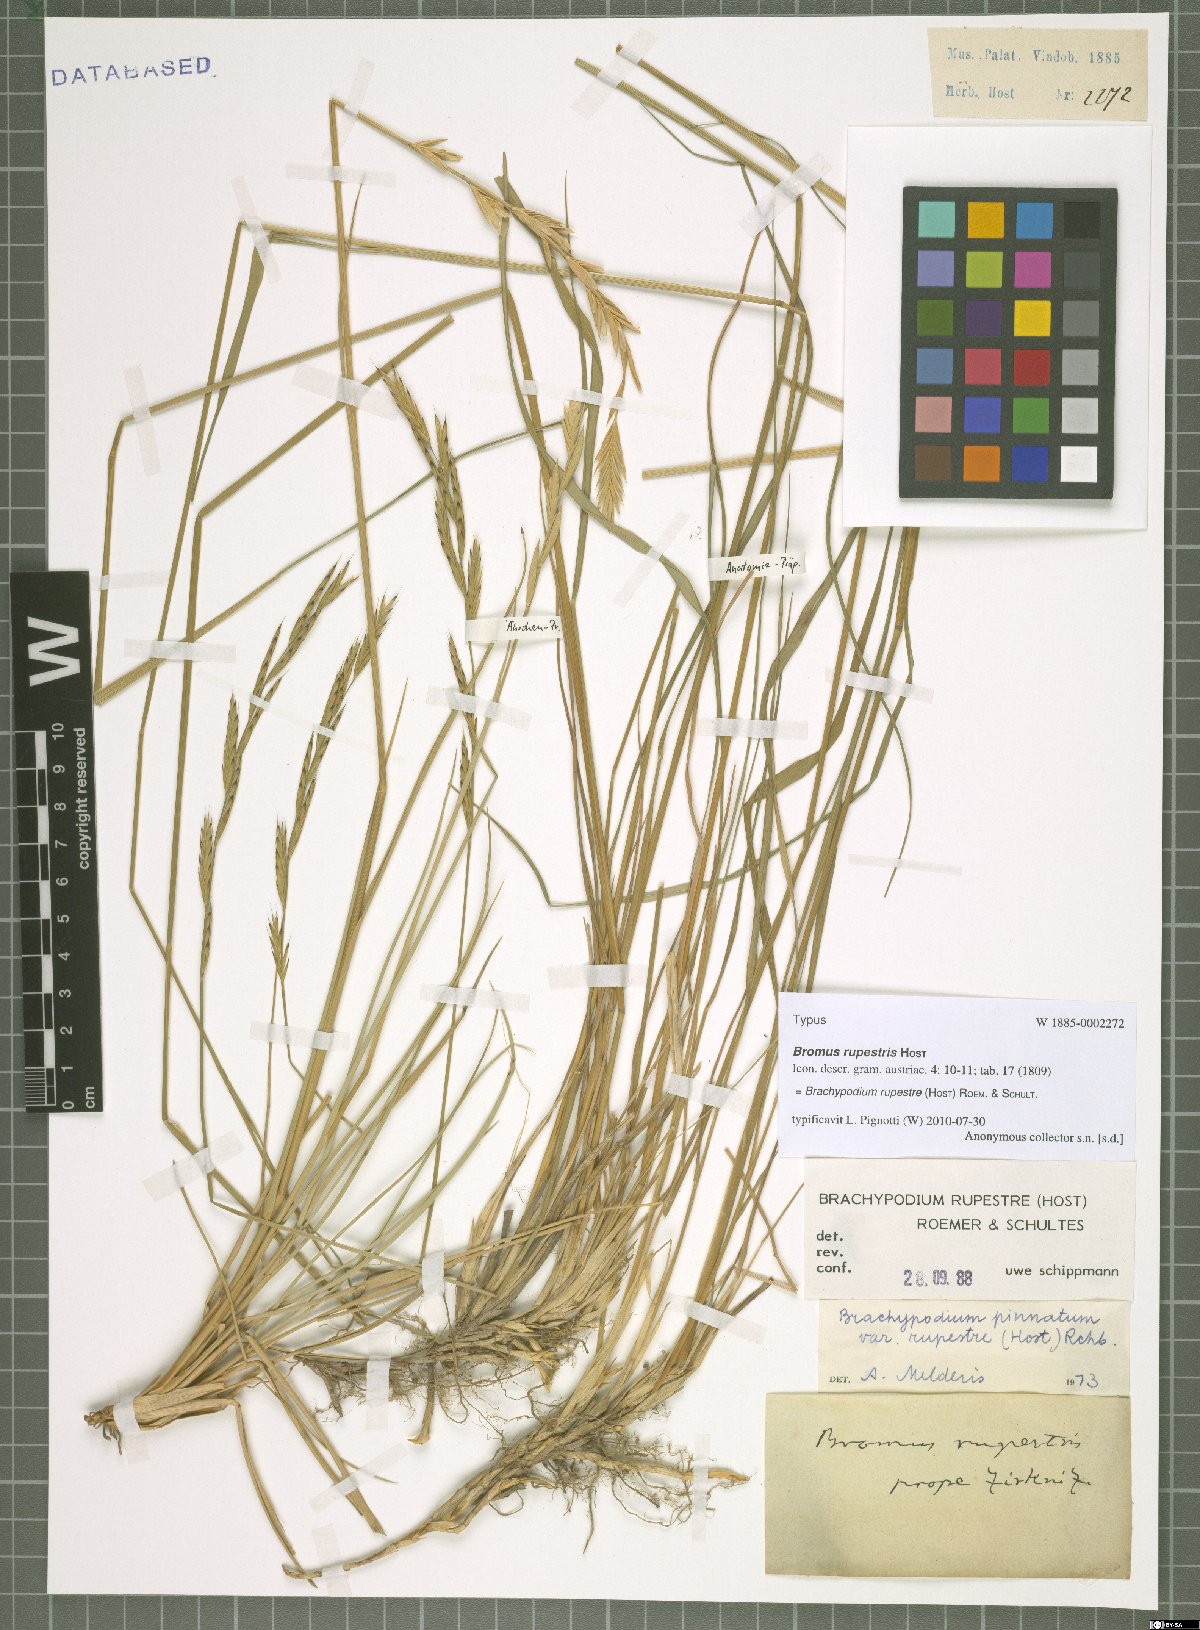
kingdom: Plantae
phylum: Tracheophyta
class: Liliopsida
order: Poales
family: Poaceae
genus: Brachypodium
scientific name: Brachypodium pinnatum
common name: Tor grass
